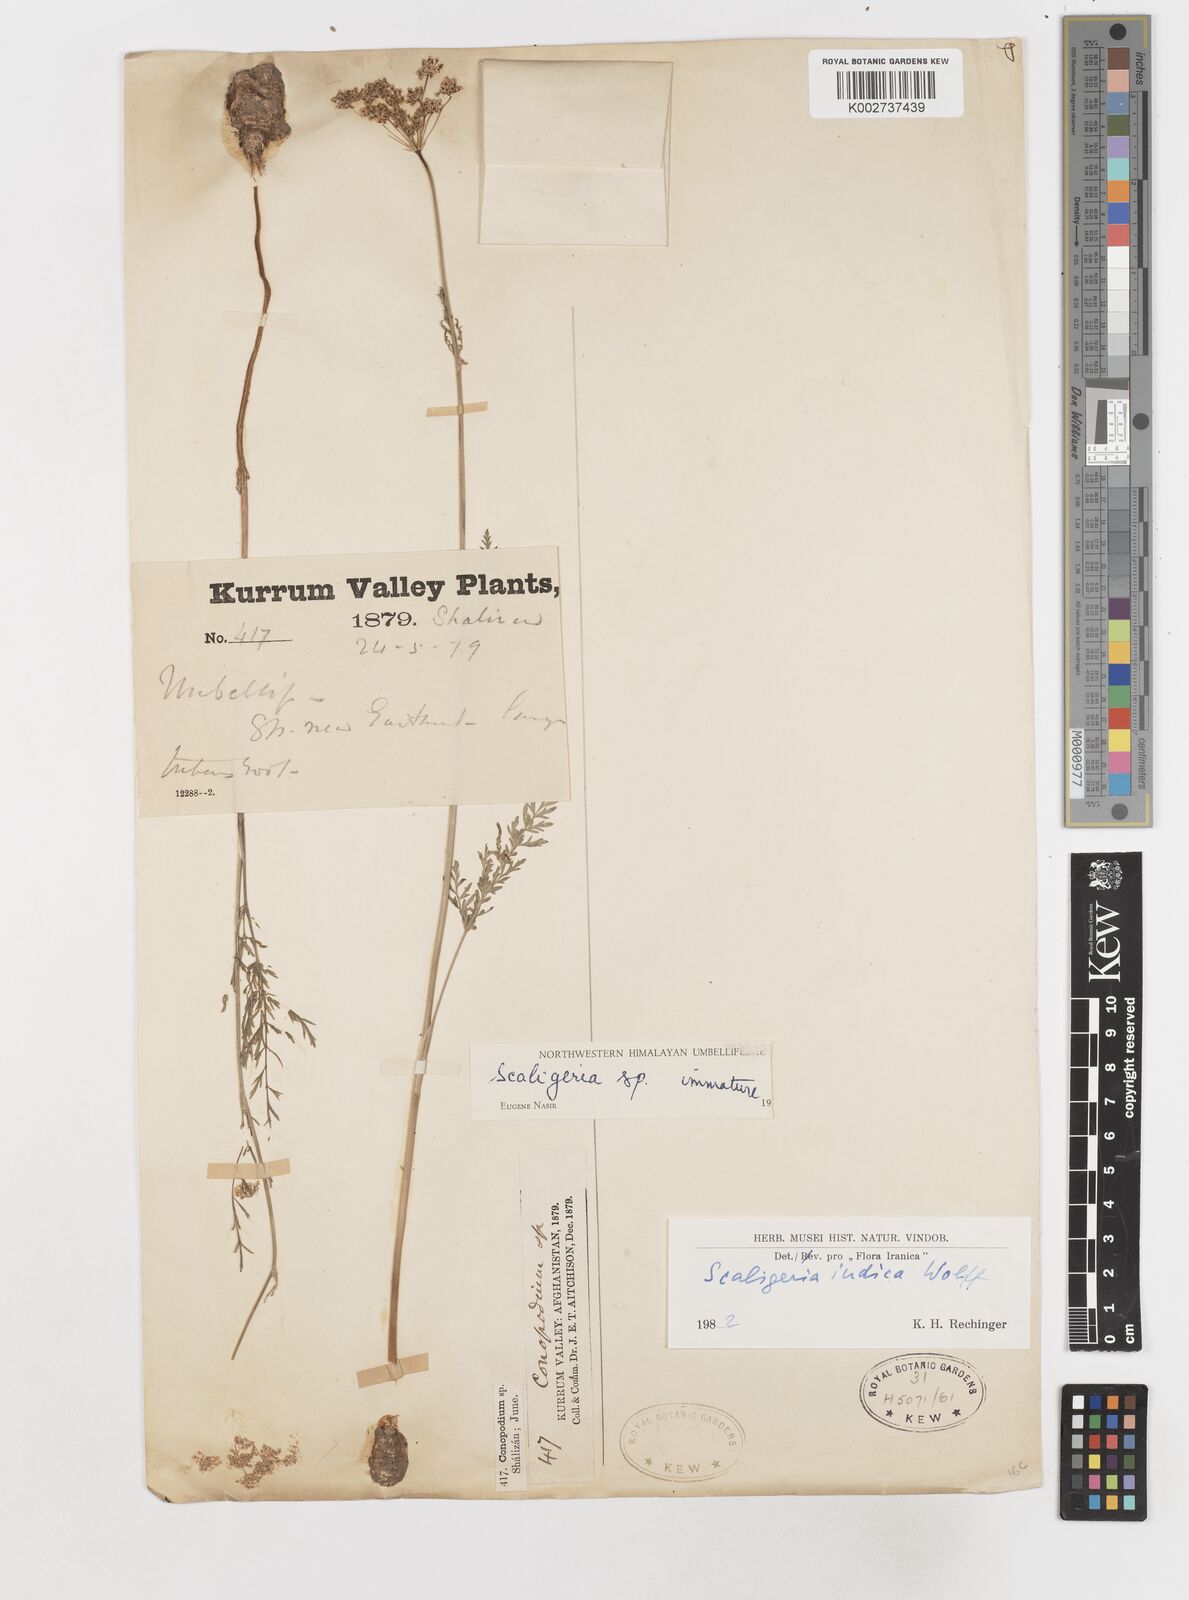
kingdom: Plantae
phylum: Tracheophyta
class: Magnoliopsida
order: Apiales
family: Apiaceae
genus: Scaligeria
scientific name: Scaligeria hirtula
